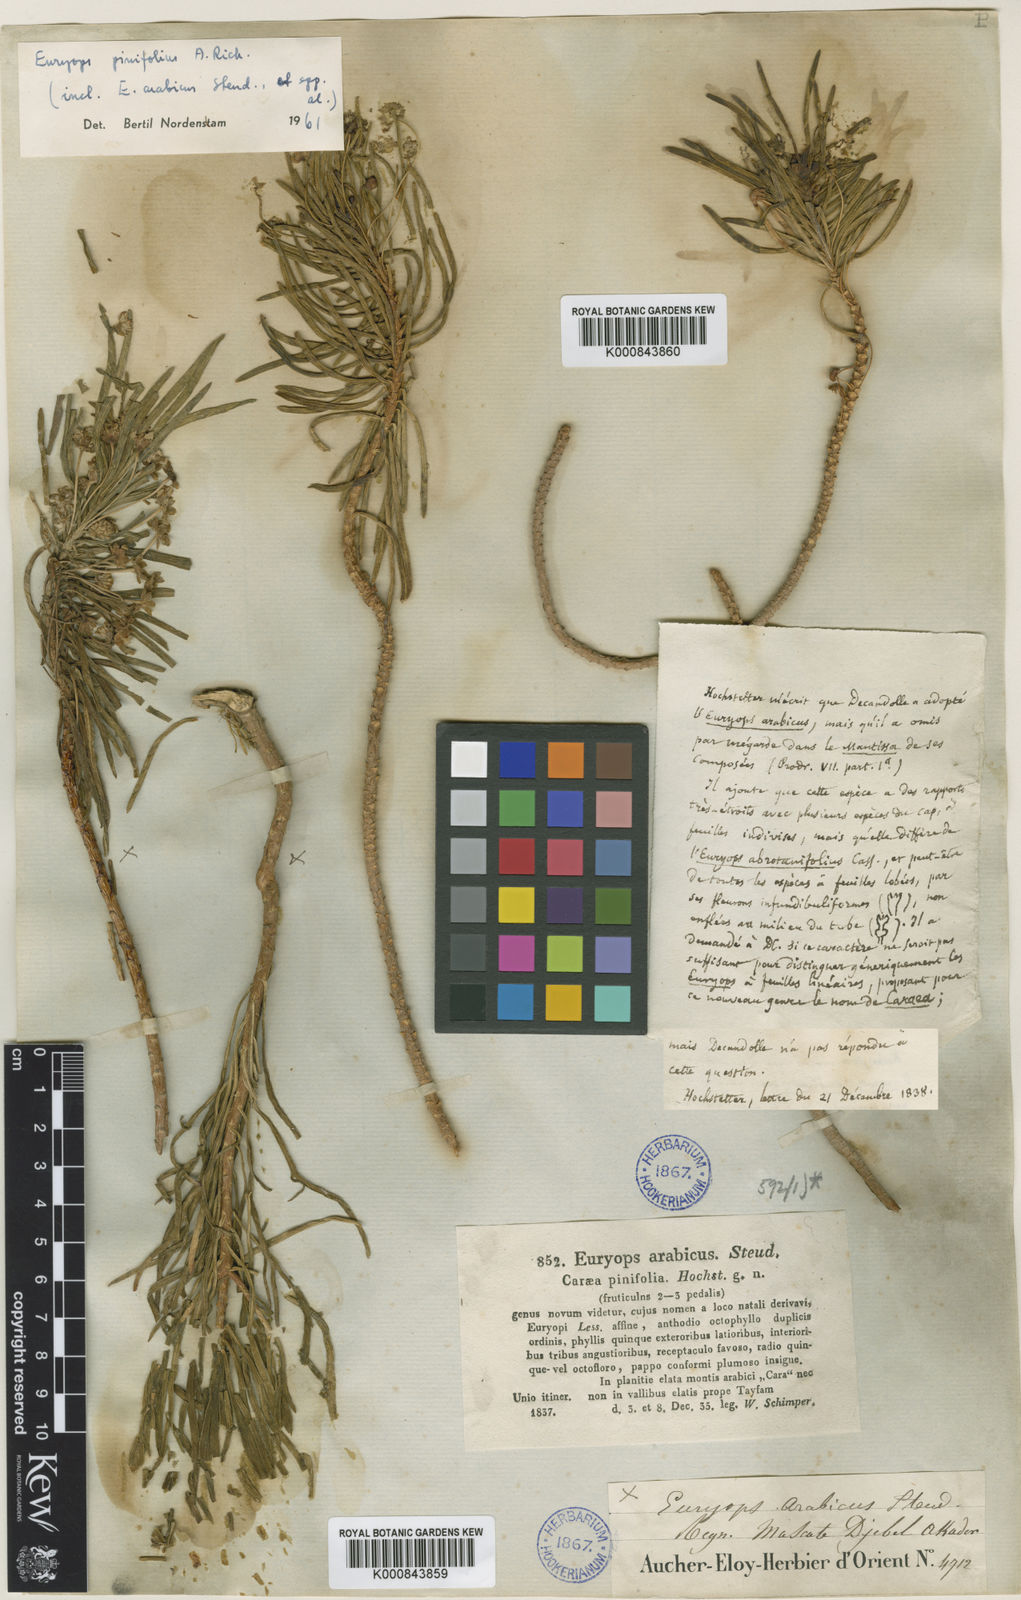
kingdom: Plantae
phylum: Tracheophyta
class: Magnoliopsida
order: Asterales
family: Asteraceae
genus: Euryops
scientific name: Euryops
